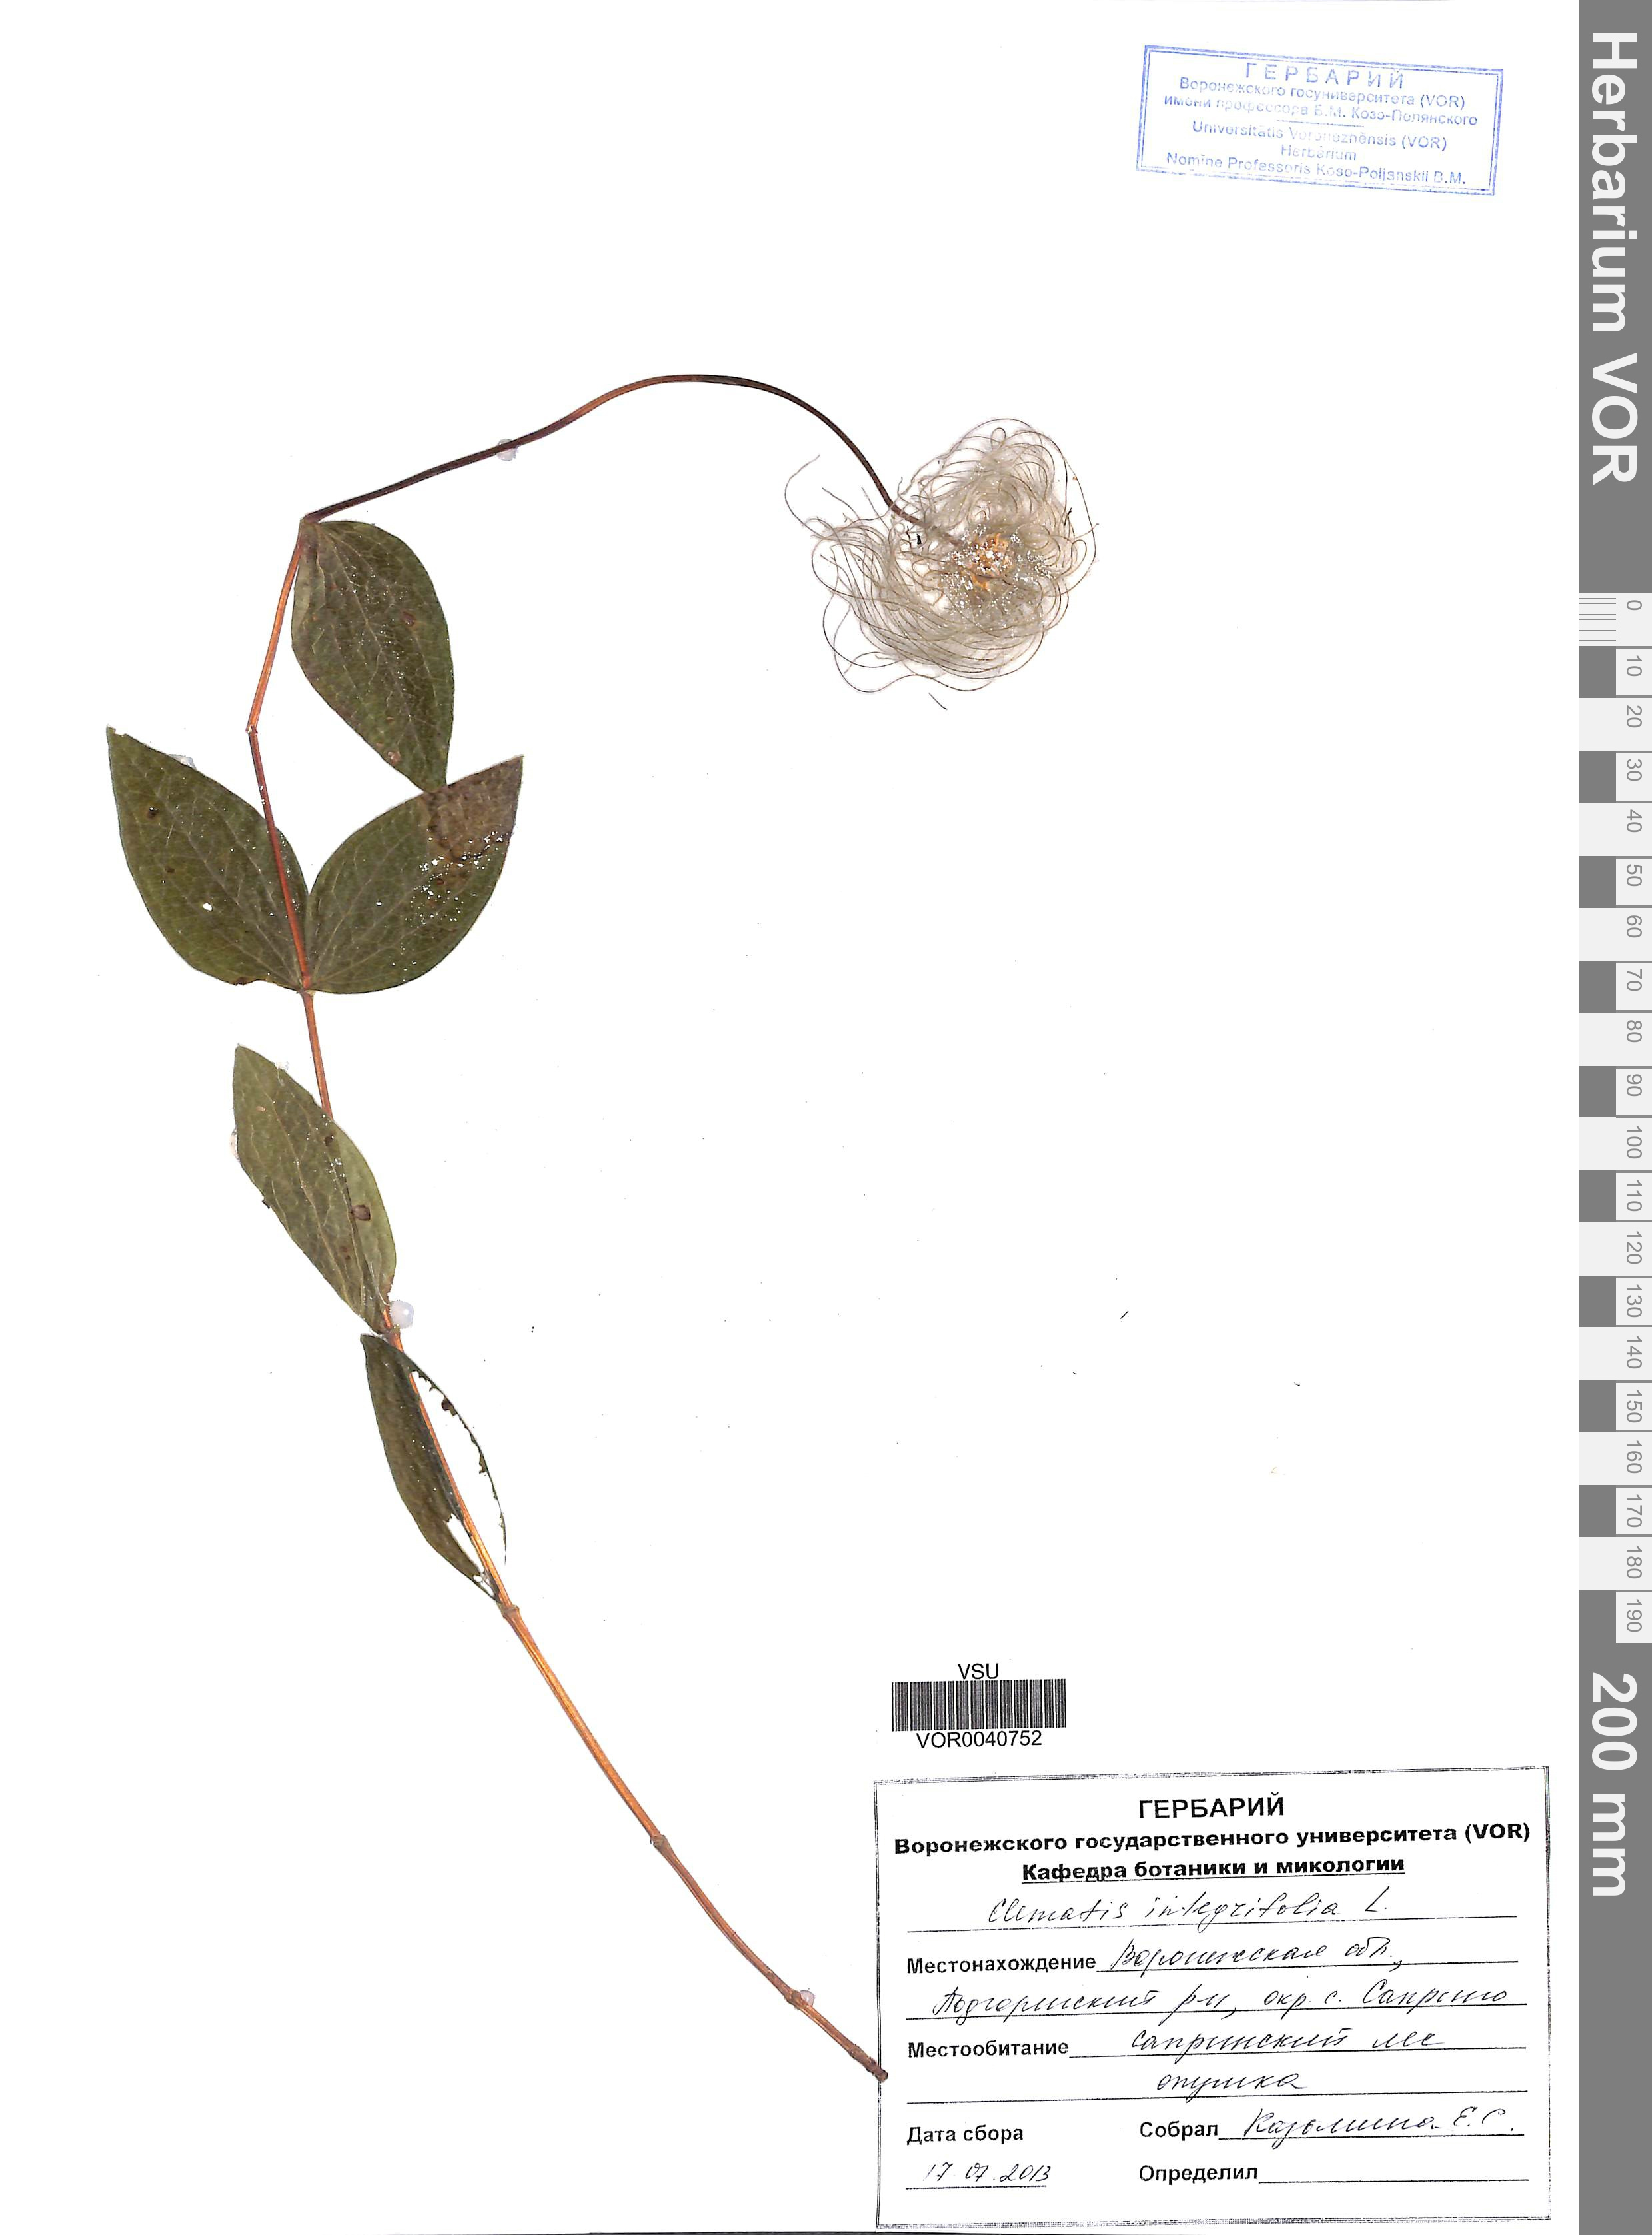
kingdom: Plantae
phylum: Tracheophyta
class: Magnoliopsida
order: Ranunculales
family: Ranunculaceae
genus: Clematis
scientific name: Clematis integrifolia
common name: Solitary clematis
